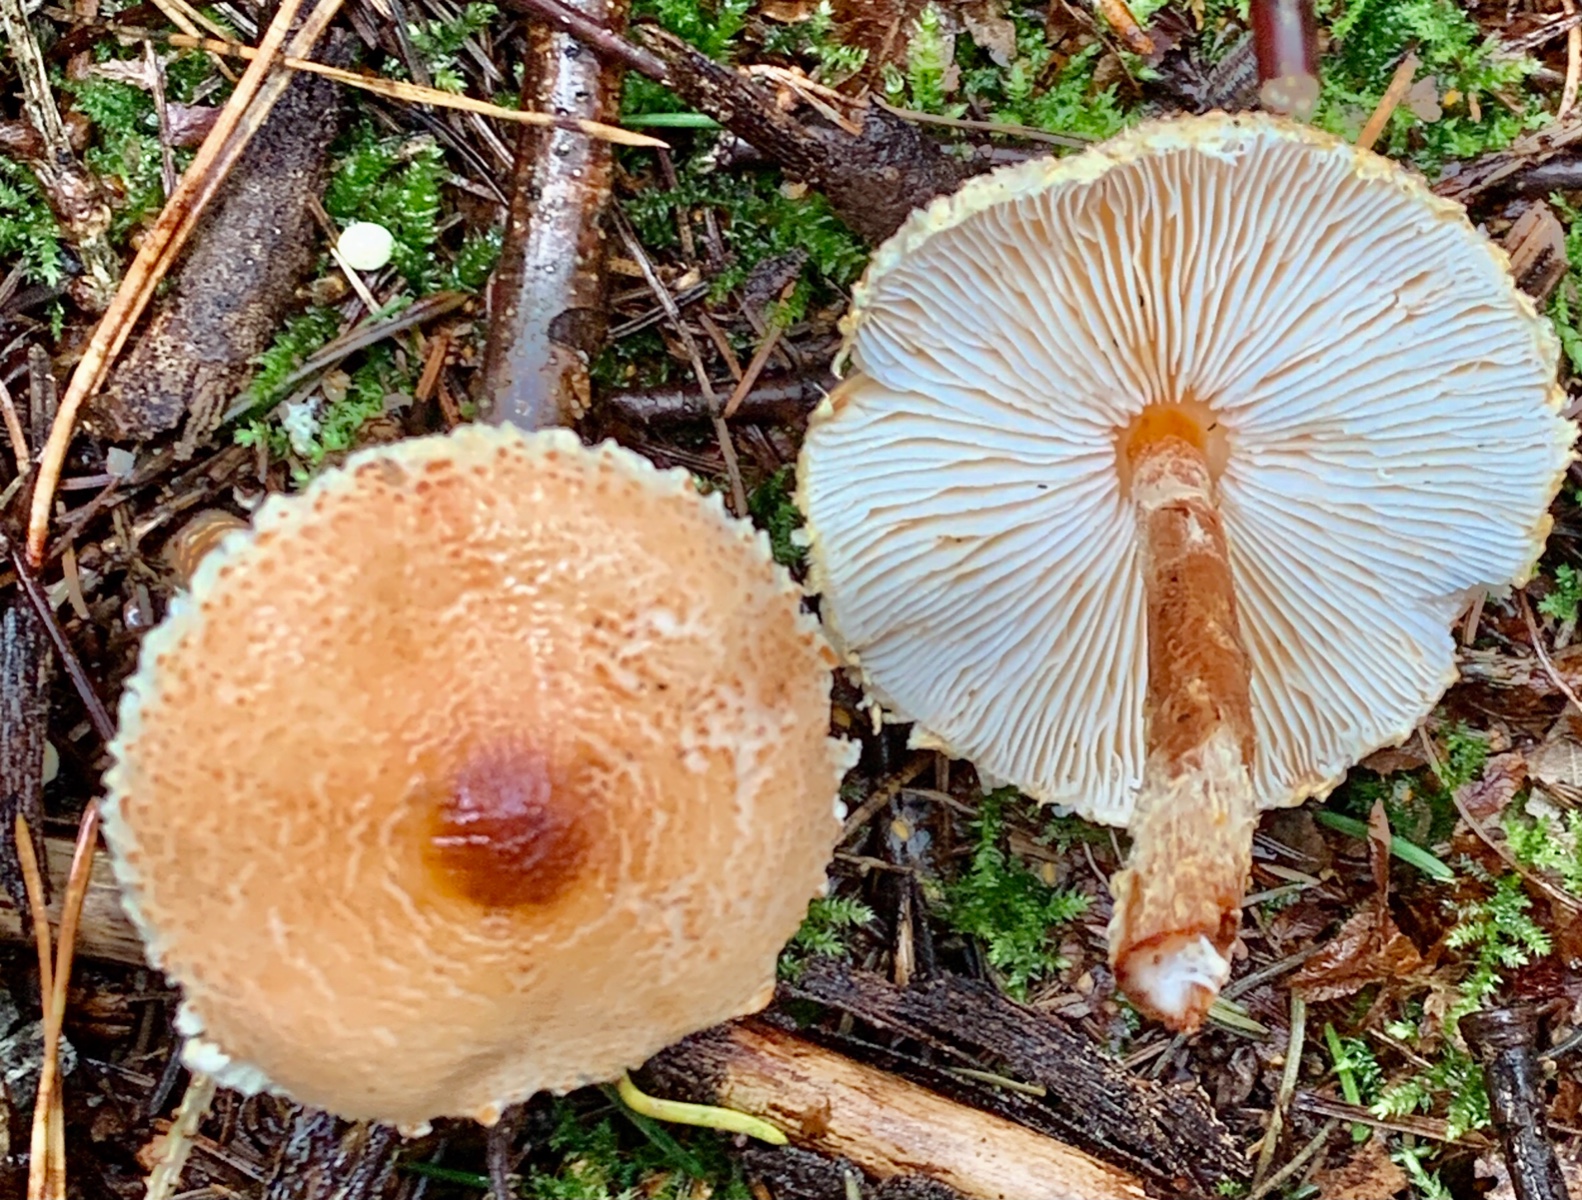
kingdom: Fungi
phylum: Basidiomycota
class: Agaricomycetes
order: Agaricales
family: Agaricaceae
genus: Lepiota
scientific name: Lepiota magnispora
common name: gulfnugget parasolhat
